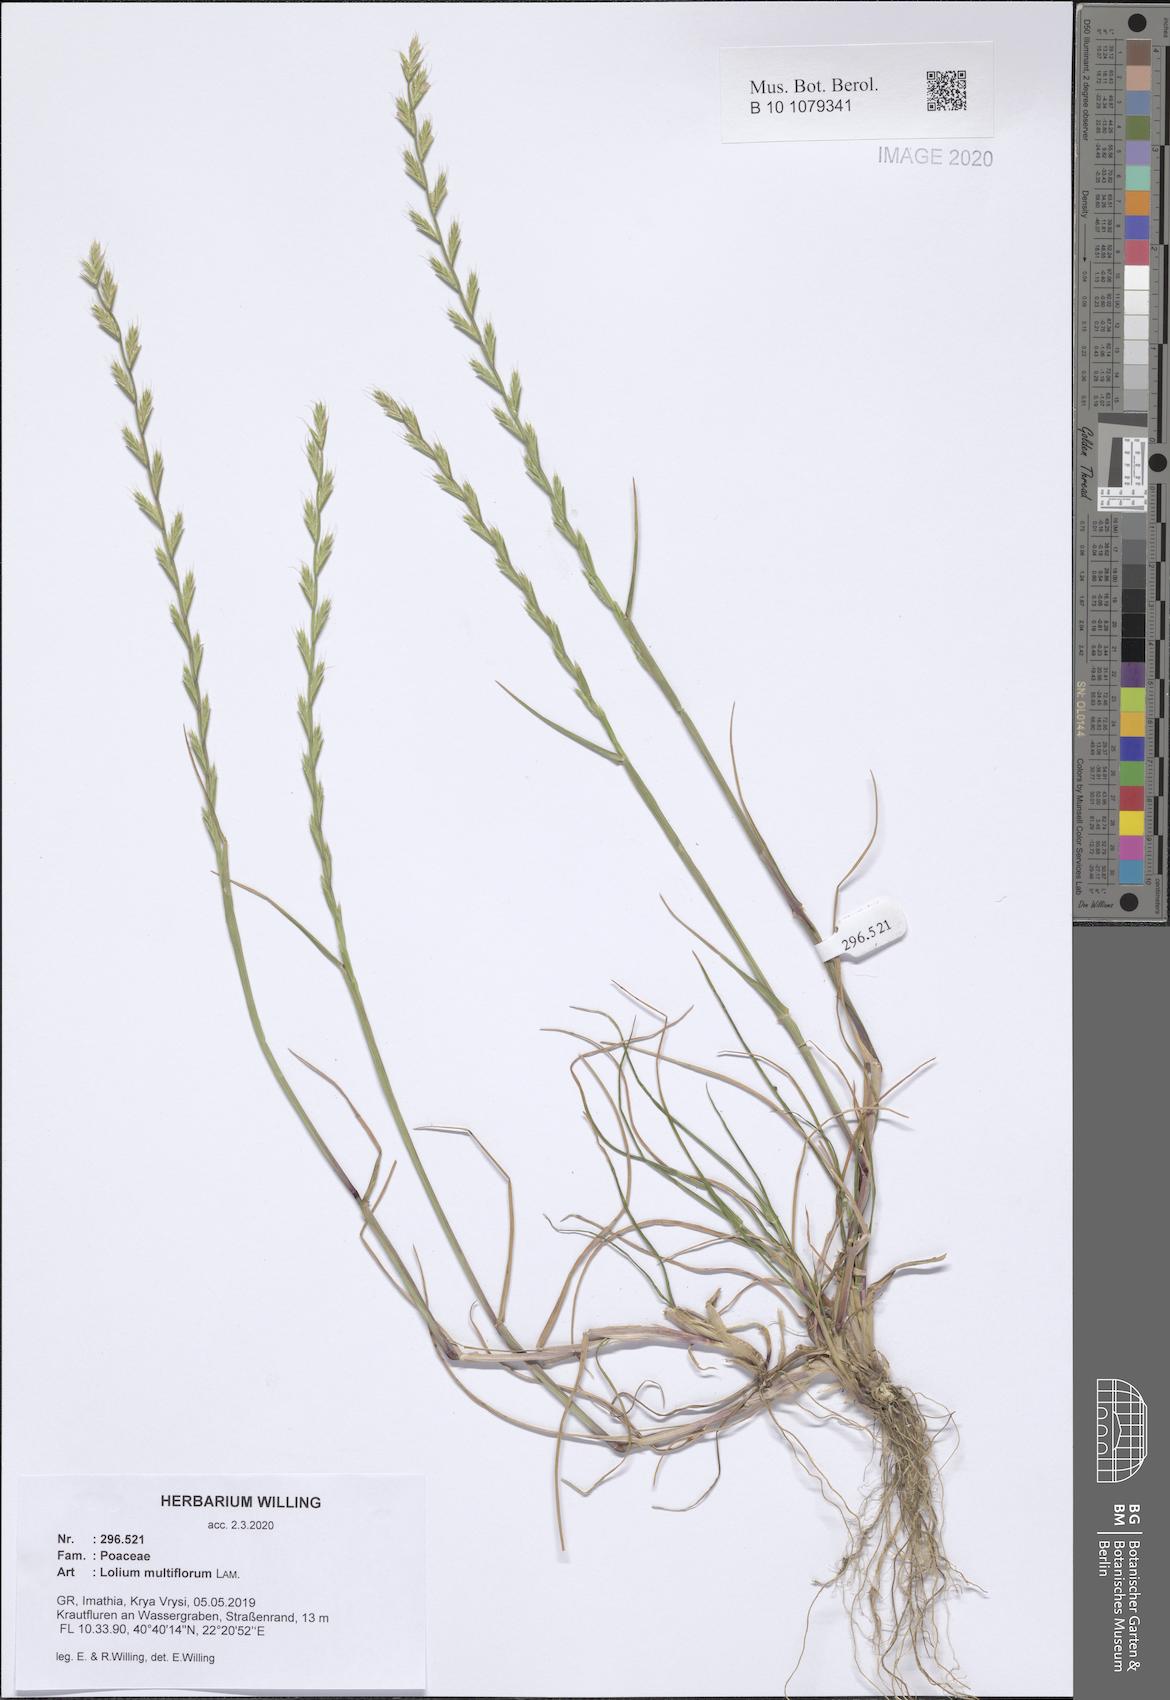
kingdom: Plantae
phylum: Tracheophyta
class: Liliopsida
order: Poales
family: Poaceae
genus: Lolium
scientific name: Lolium multiflorum
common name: Annual ryegrass
